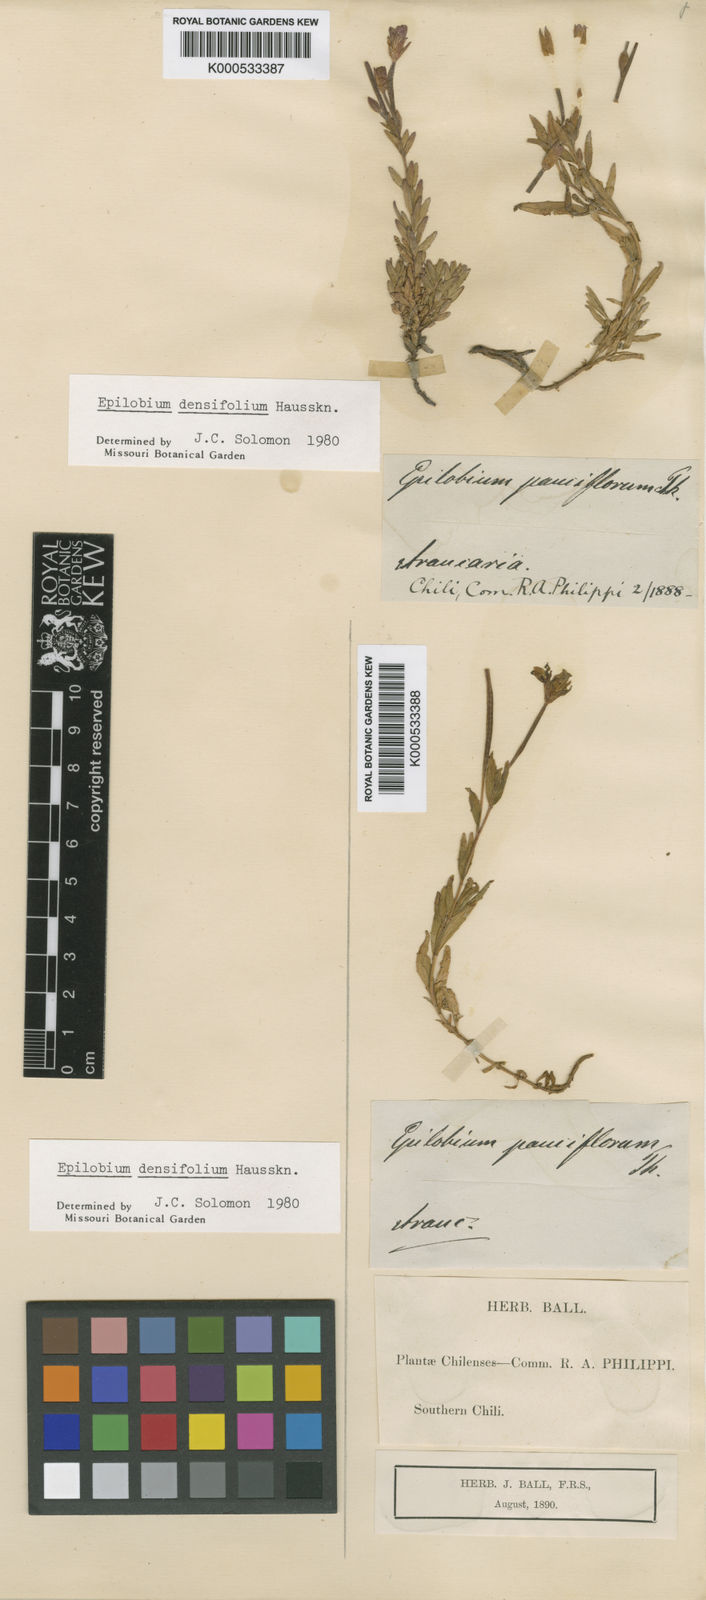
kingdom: Plantae
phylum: Tracheophyta
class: Magnoliopsida
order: Myrtales
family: Onagraceae
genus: Epilobium
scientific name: Epilobium densifolium
